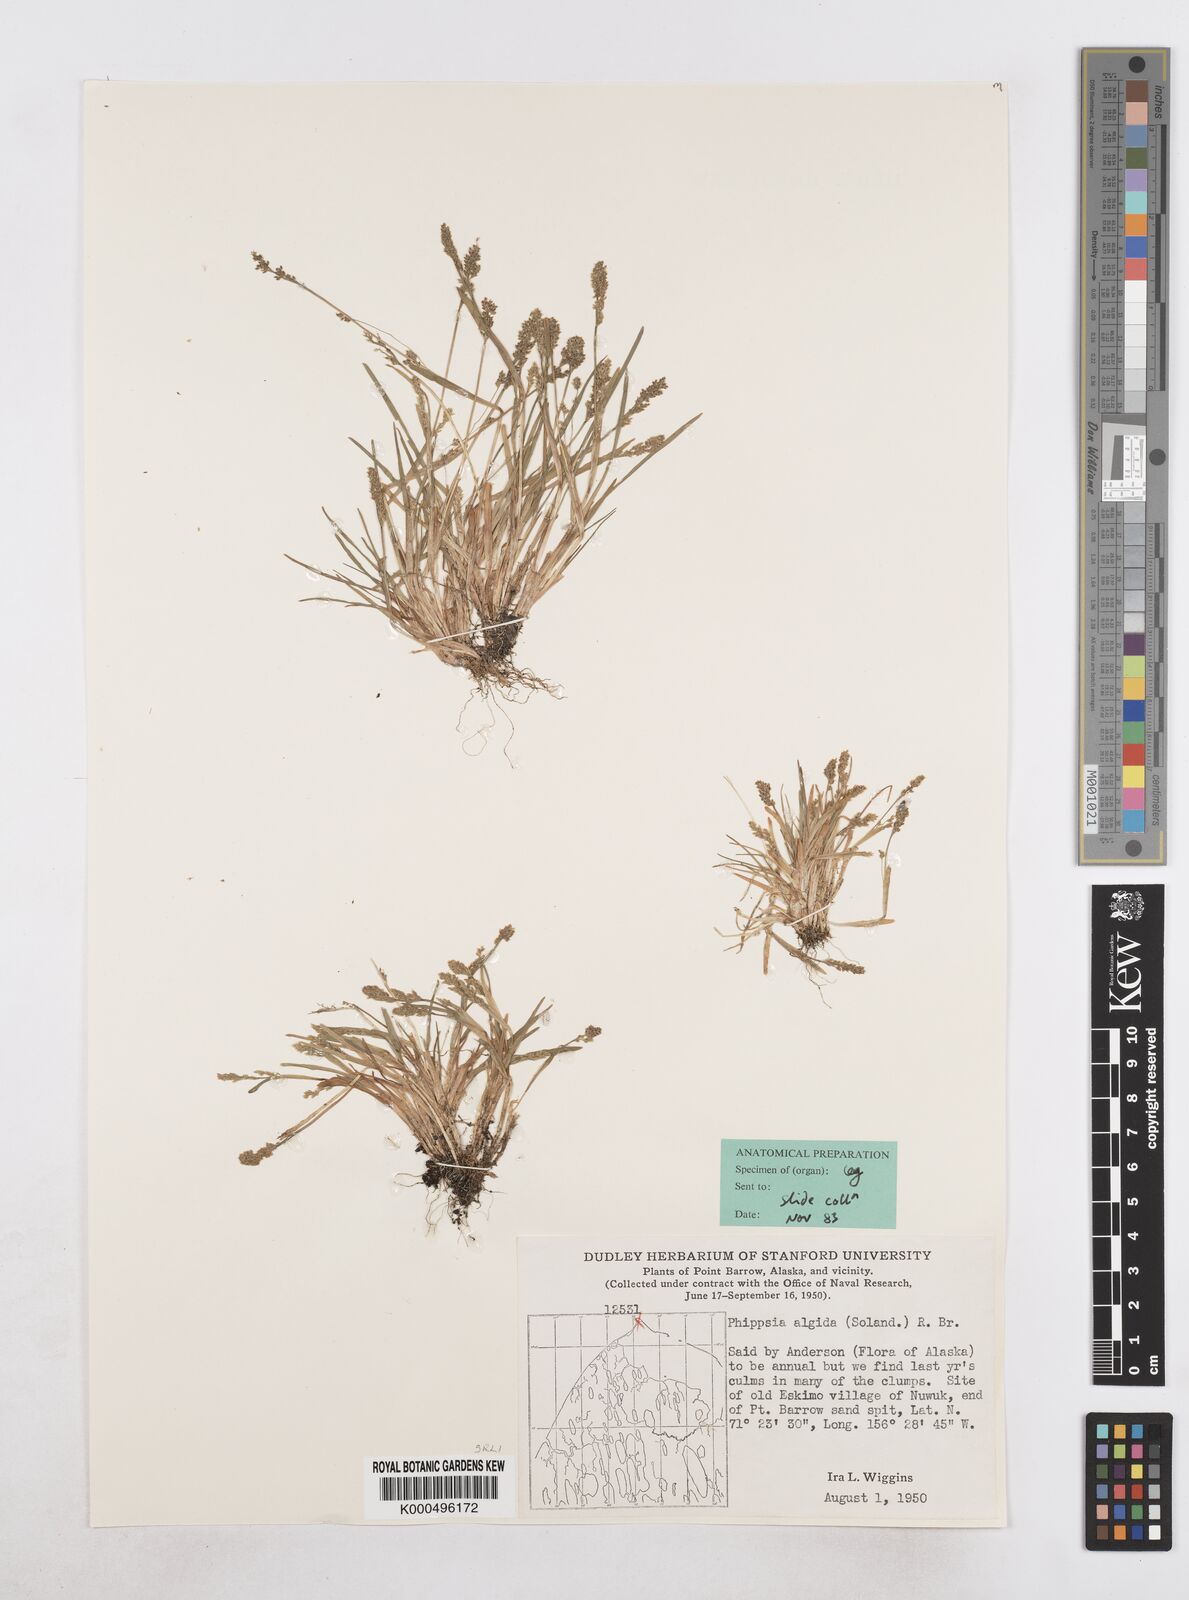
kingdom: Plantae
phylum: Tracheophyta
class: Liliopsida
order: Poales
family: Poaceae
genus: Phippsia
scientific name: Phippsia algida
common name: Ice grass
